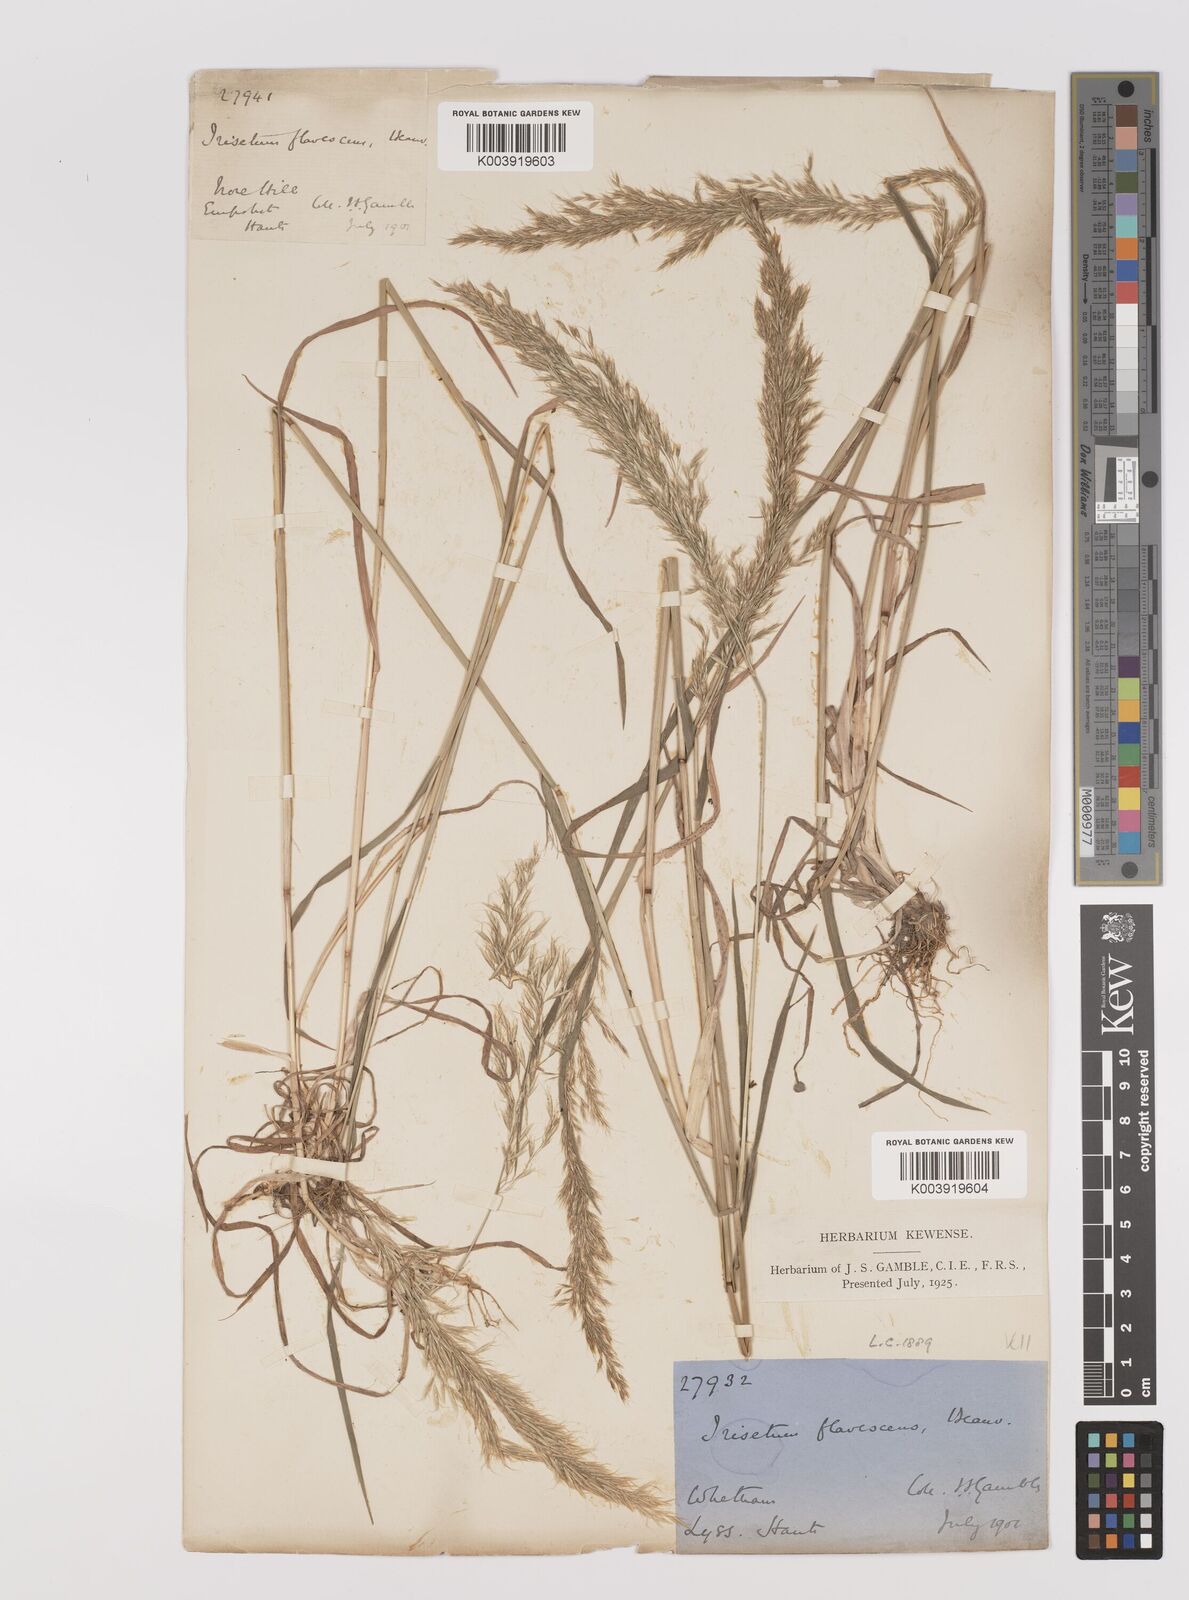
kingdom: Plantae
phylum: Tracheophyta
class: Liliopsida
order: Poales
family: Poaceae
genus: Trisetum
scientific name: Trisetum flavescens
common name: Yellow oat-grass
